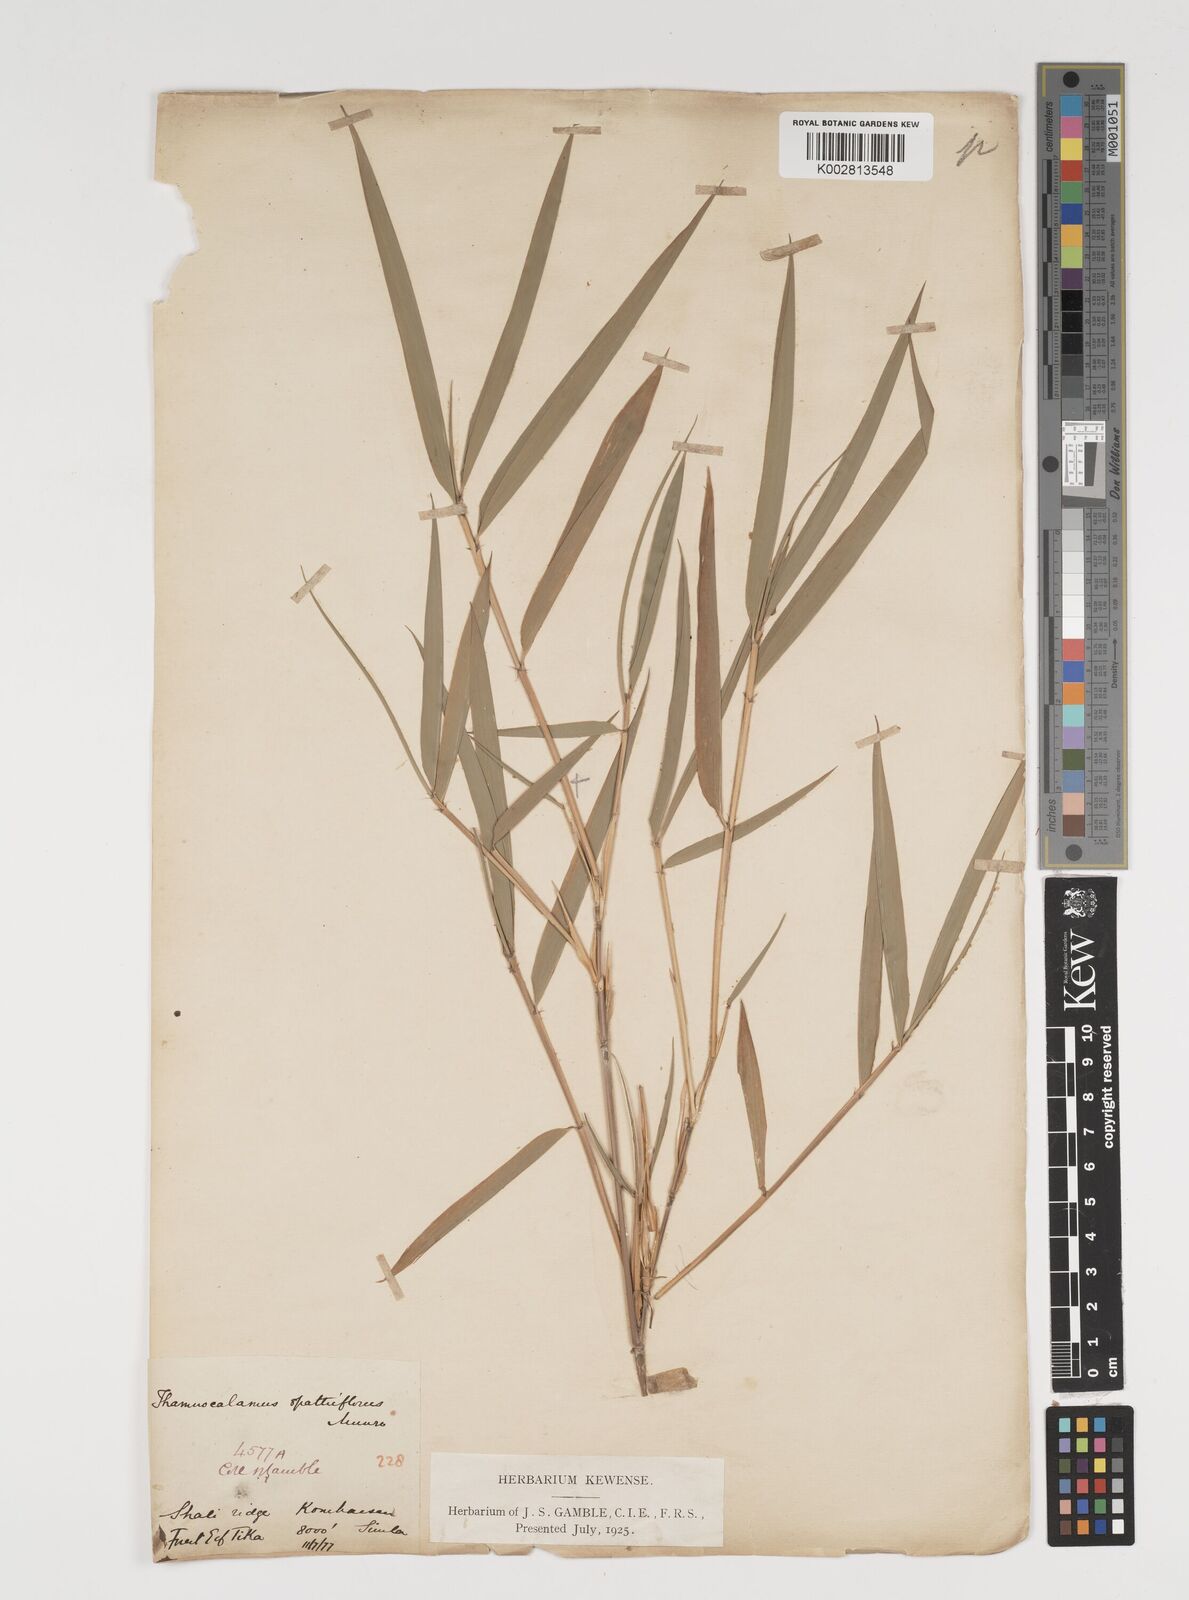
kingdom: Plantae
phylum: Tracheophyta
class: Liliopsida
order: Poales
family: Poaceae
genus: Thamnocalamus
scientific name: Thamnocalamus spathiflorus
